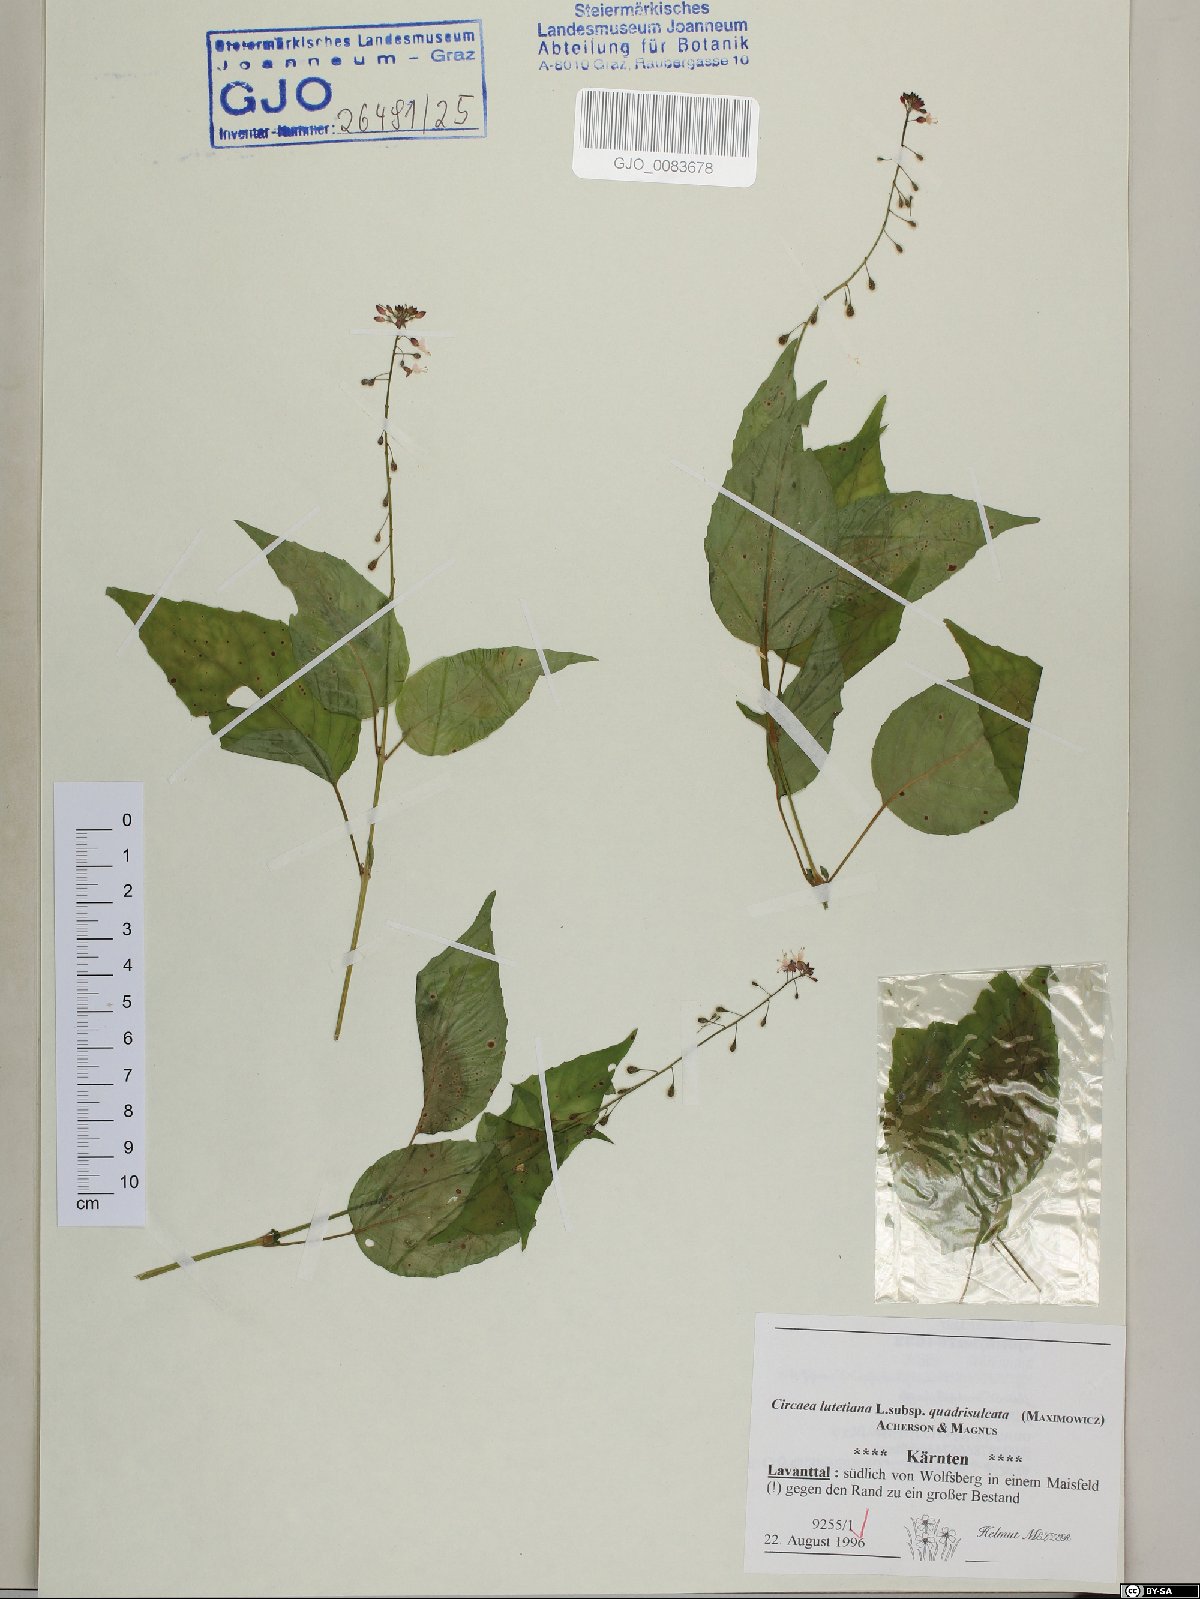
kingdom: Plantae
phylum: Tracheophyta
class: Magnoliopsida
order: Myrtales
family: Onagraceae
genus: Circaea
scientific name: Circaea canadensis
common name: Broad-leaved enchanter's nightshade
